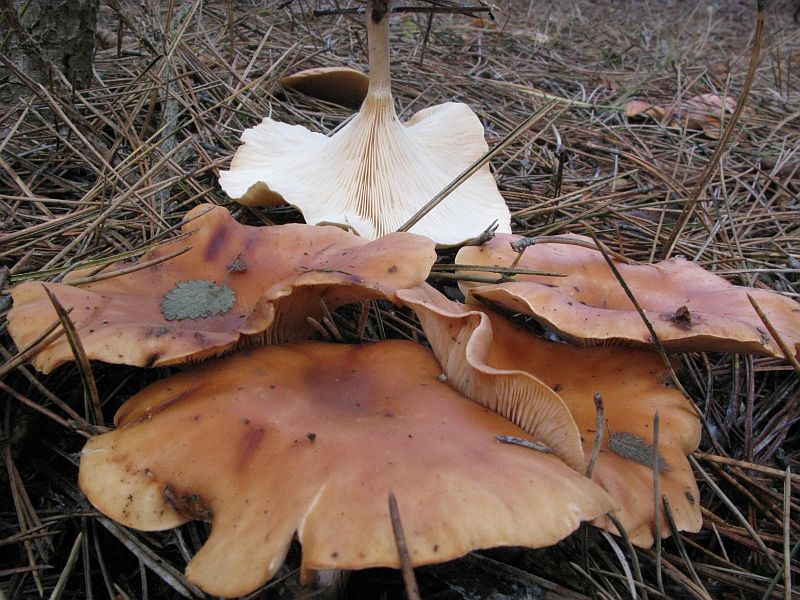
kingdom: Fungi
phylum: Basidiomycota
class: Agaricomycetes
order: Agaricales
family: Tricholomataceae
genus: Paralepista
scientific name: Paralepista flaccida
